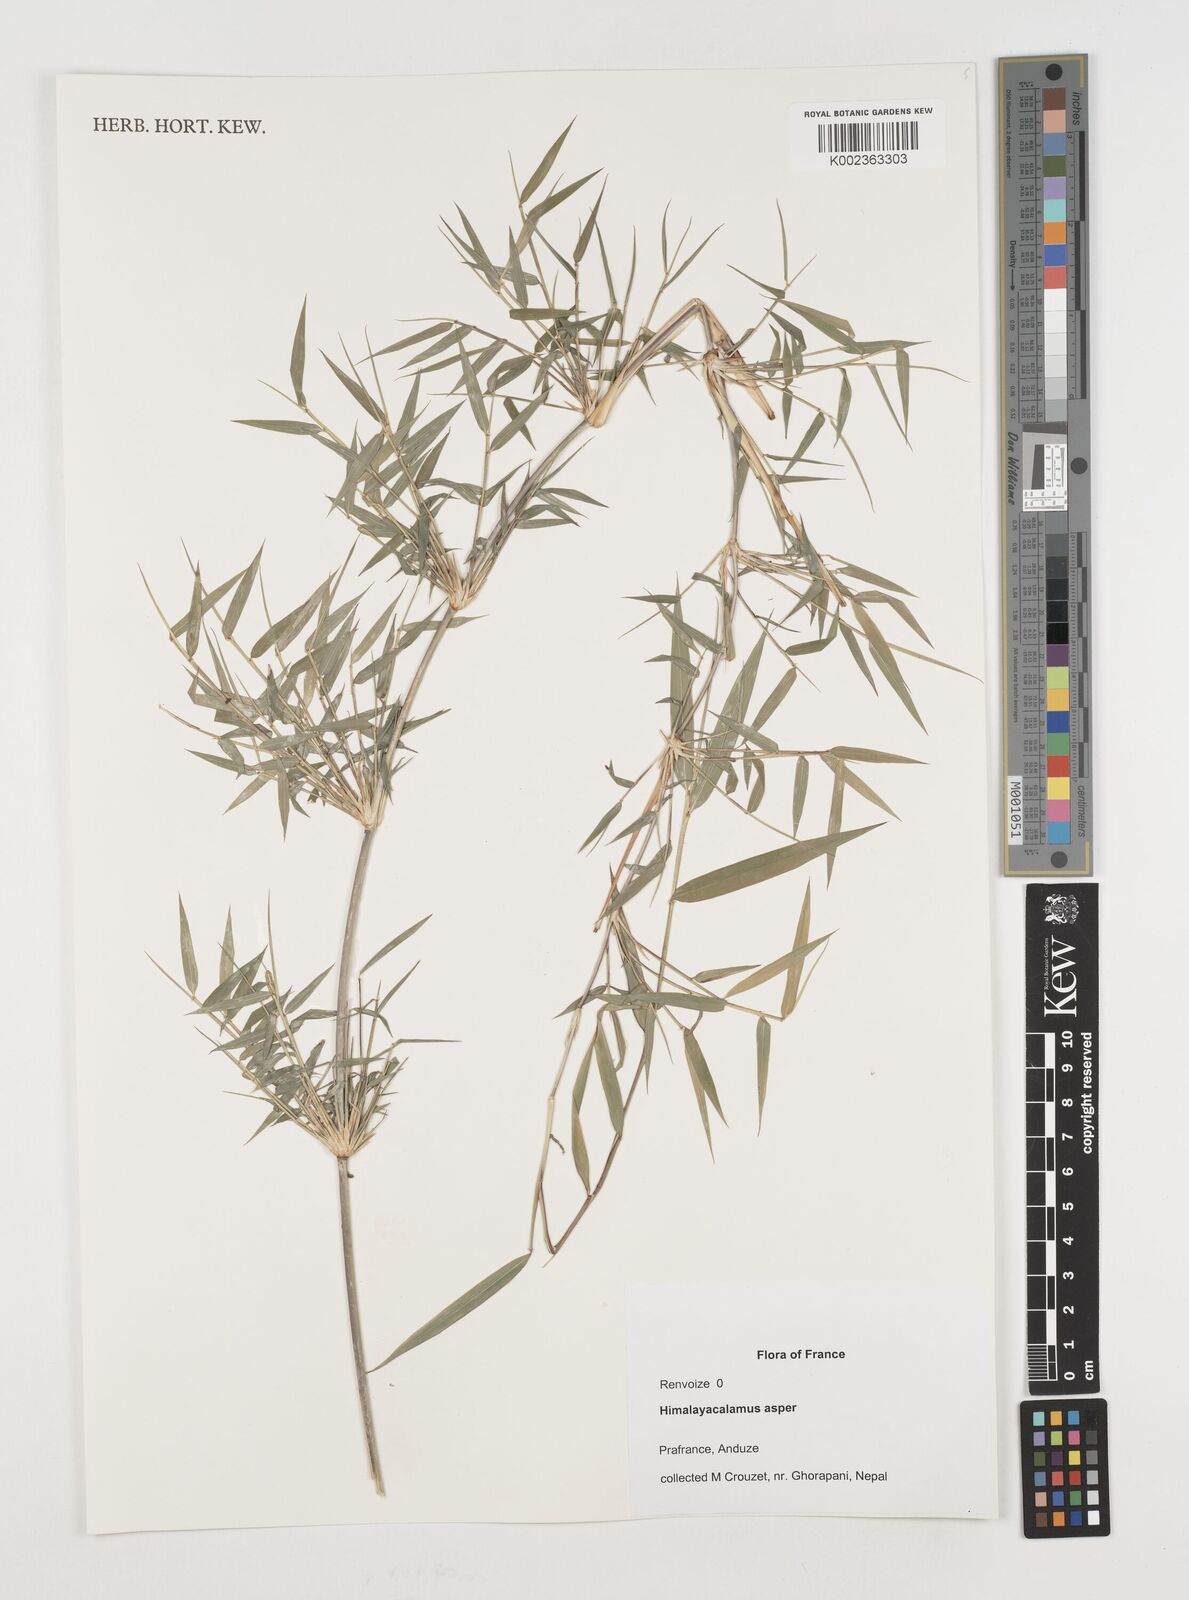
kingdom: Plantae
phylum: Tracheophyta
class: Liliopsida
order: Poales
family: Poaceae
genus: Himalayacalamus
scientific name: Himalayacalamus asper
